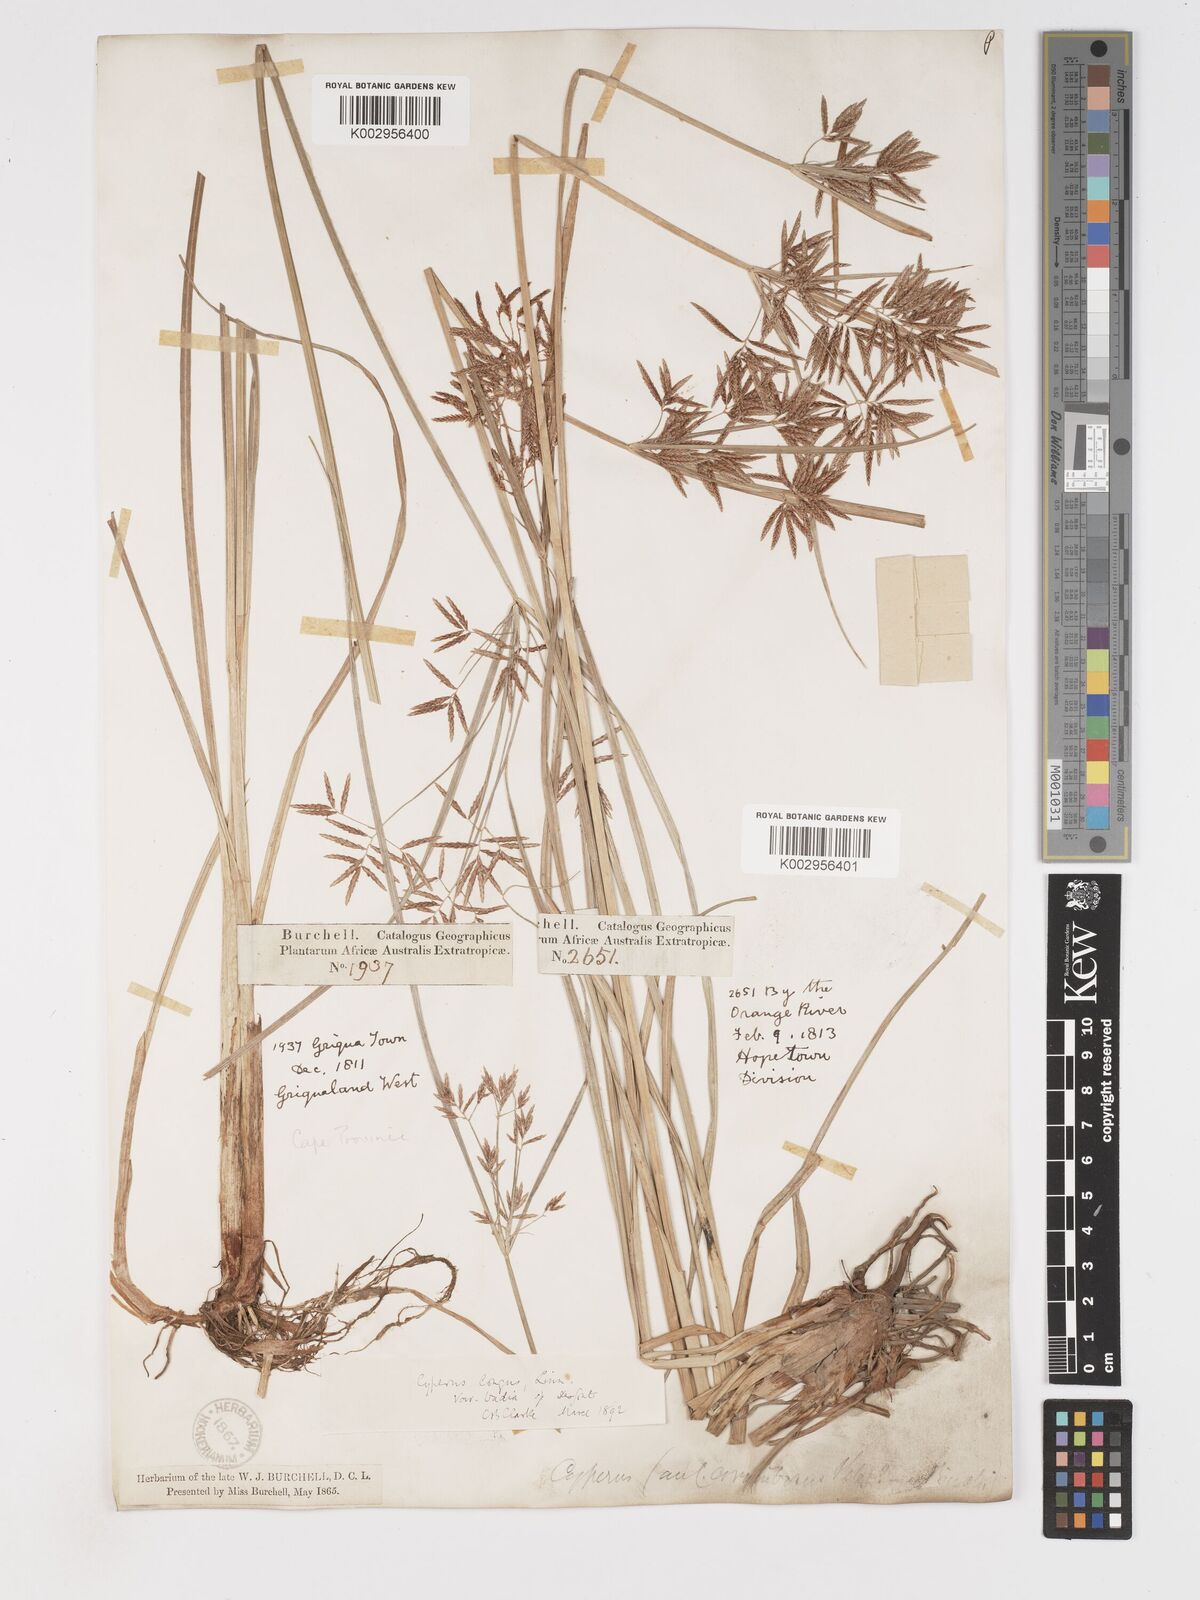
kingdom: Plantae
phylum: Tracheophyta
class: Liliopsida
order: Poales
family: Cyperaceae
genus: Cyperus
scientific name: Cyperus longus
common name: Galingale
